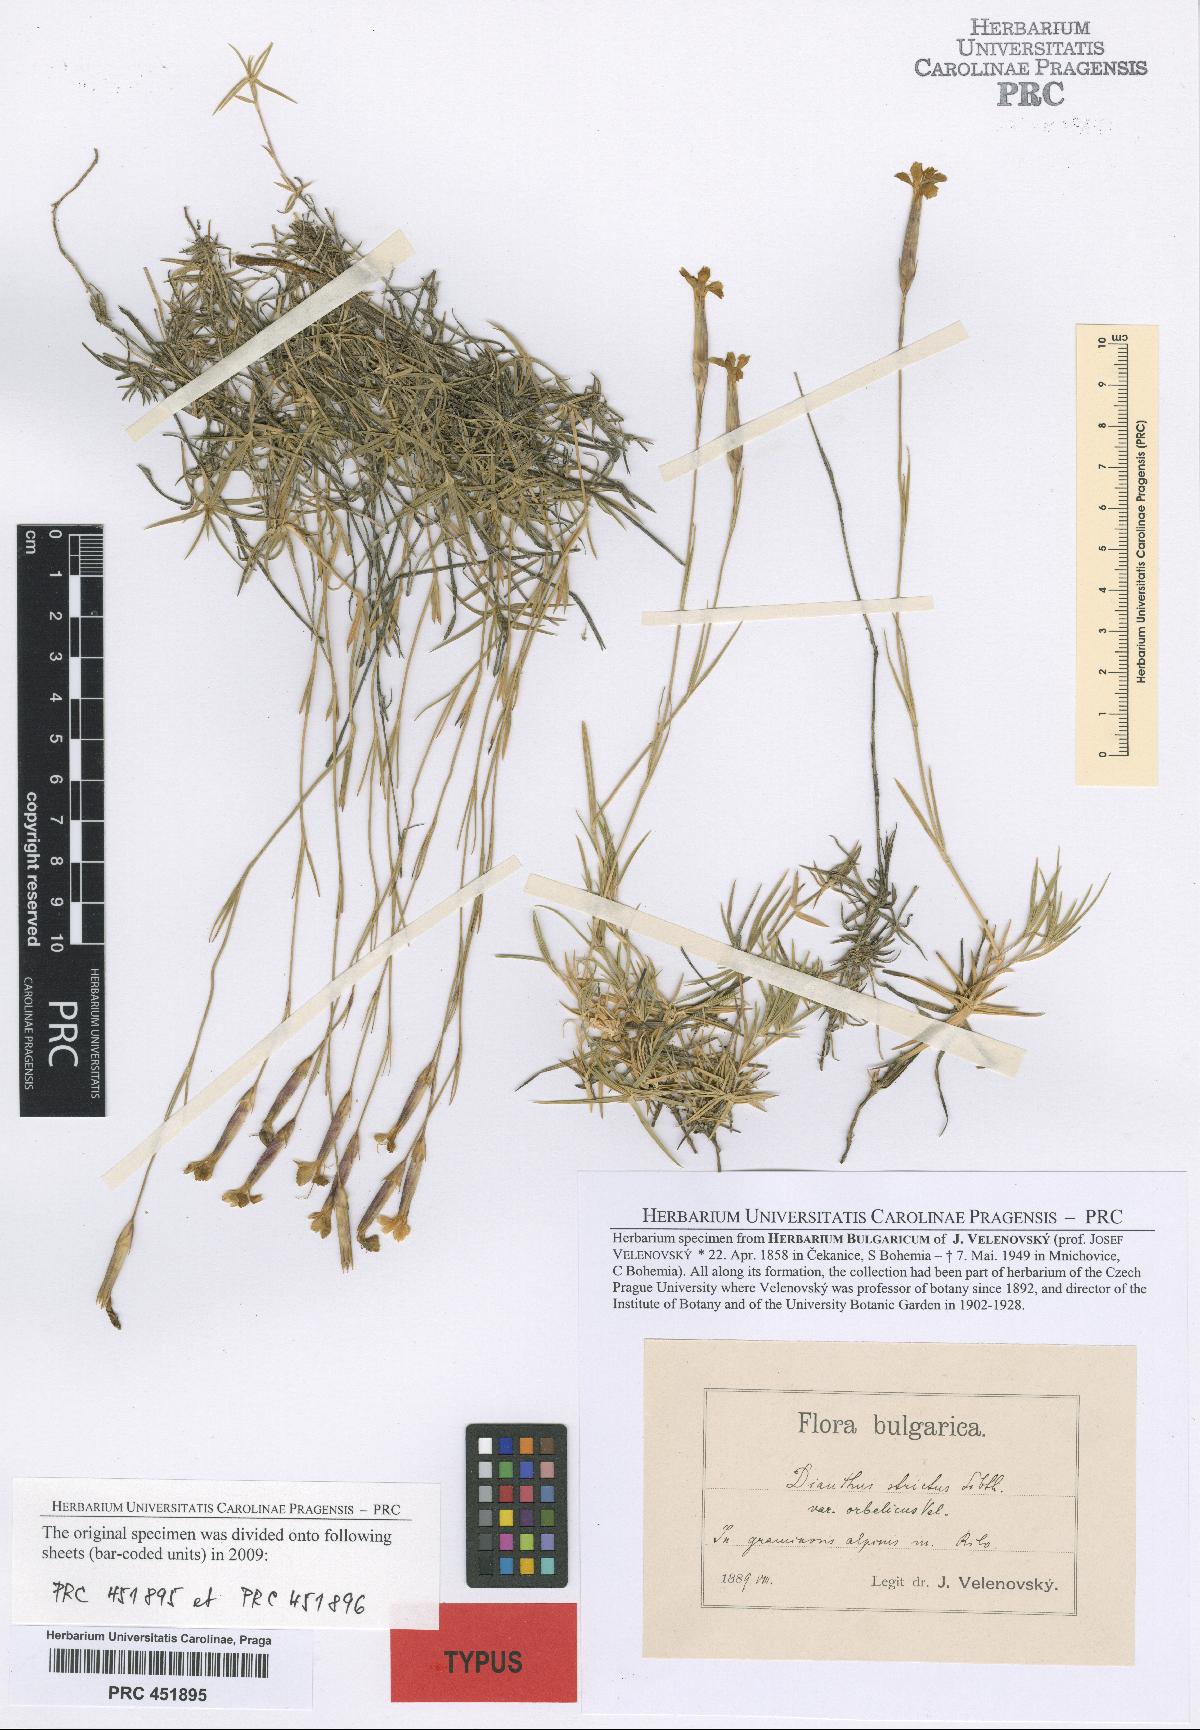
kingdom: Plantae
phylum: Tracheophyta
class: Magnoliopsida
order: Caryophyllales
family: Caryophyllaceae
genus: Dianthus
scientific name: Dianthus petraeus
